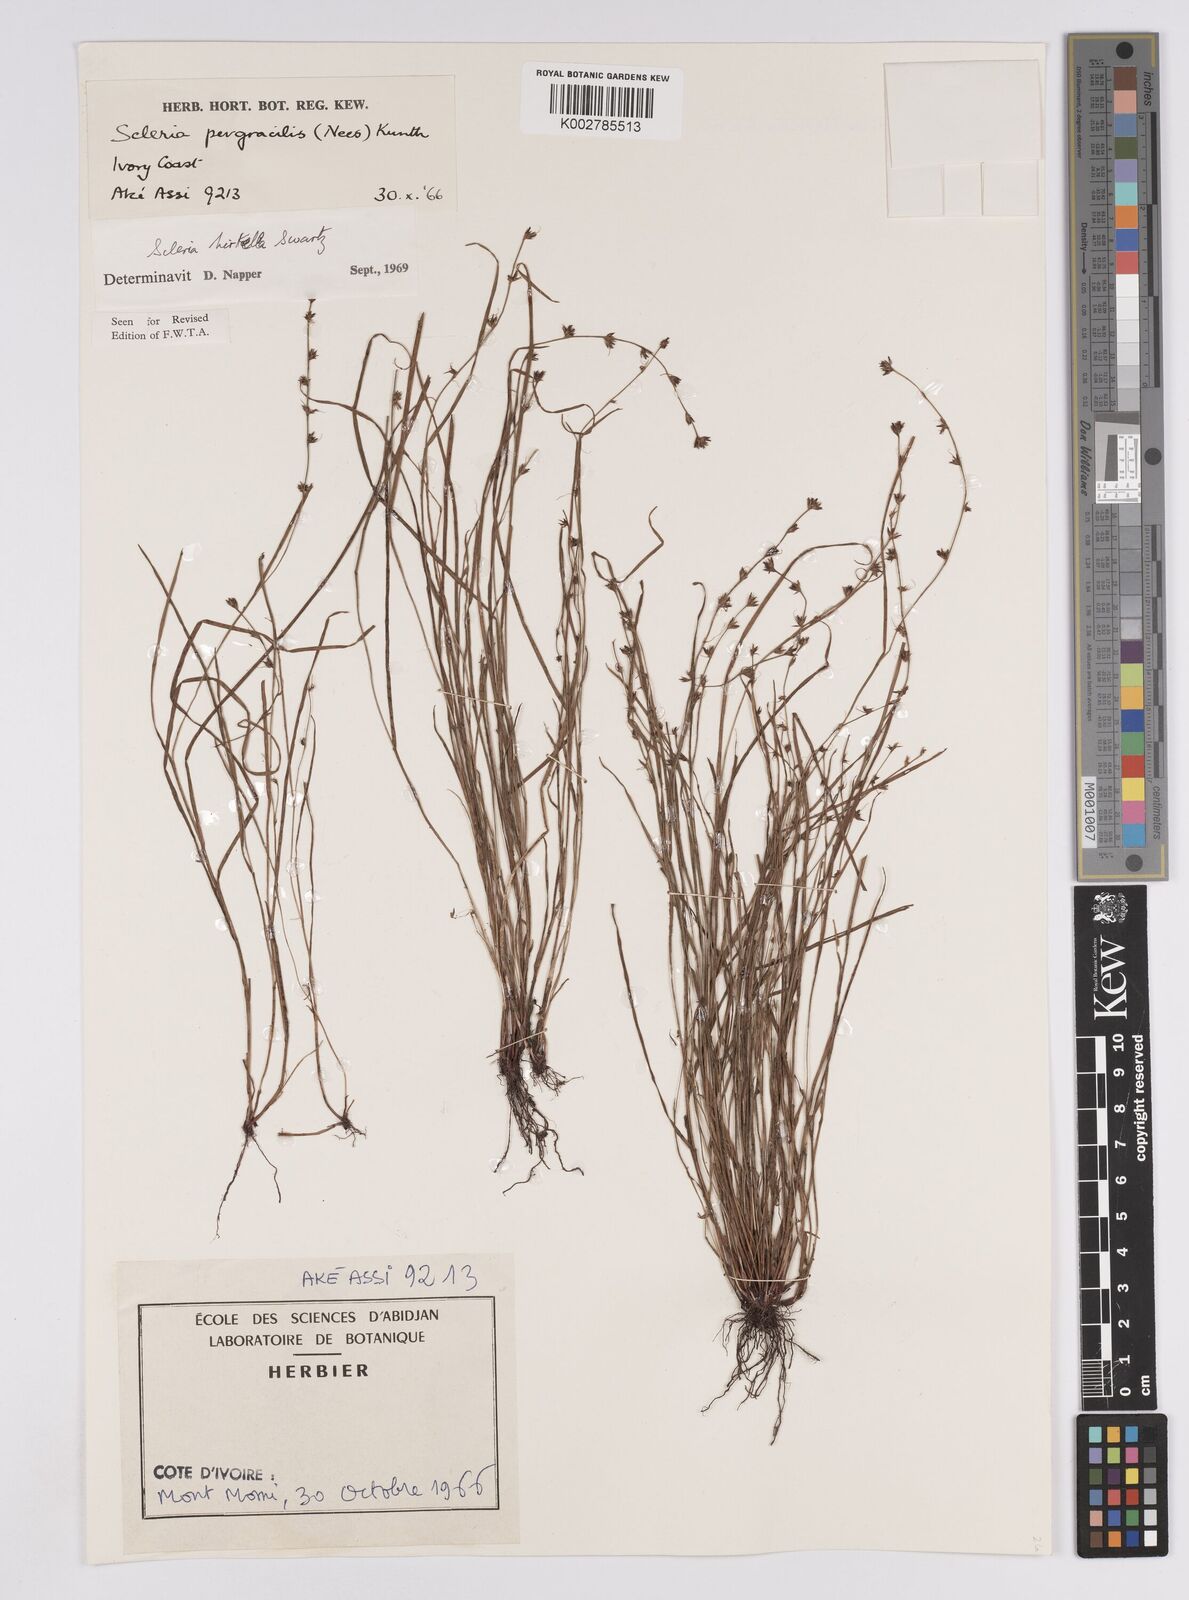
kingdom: Plantae
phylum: Tracheophyta
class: Liliopsida
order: Poales
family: Cyperaceae
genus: Scleria
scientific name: Scleria tricholepis
